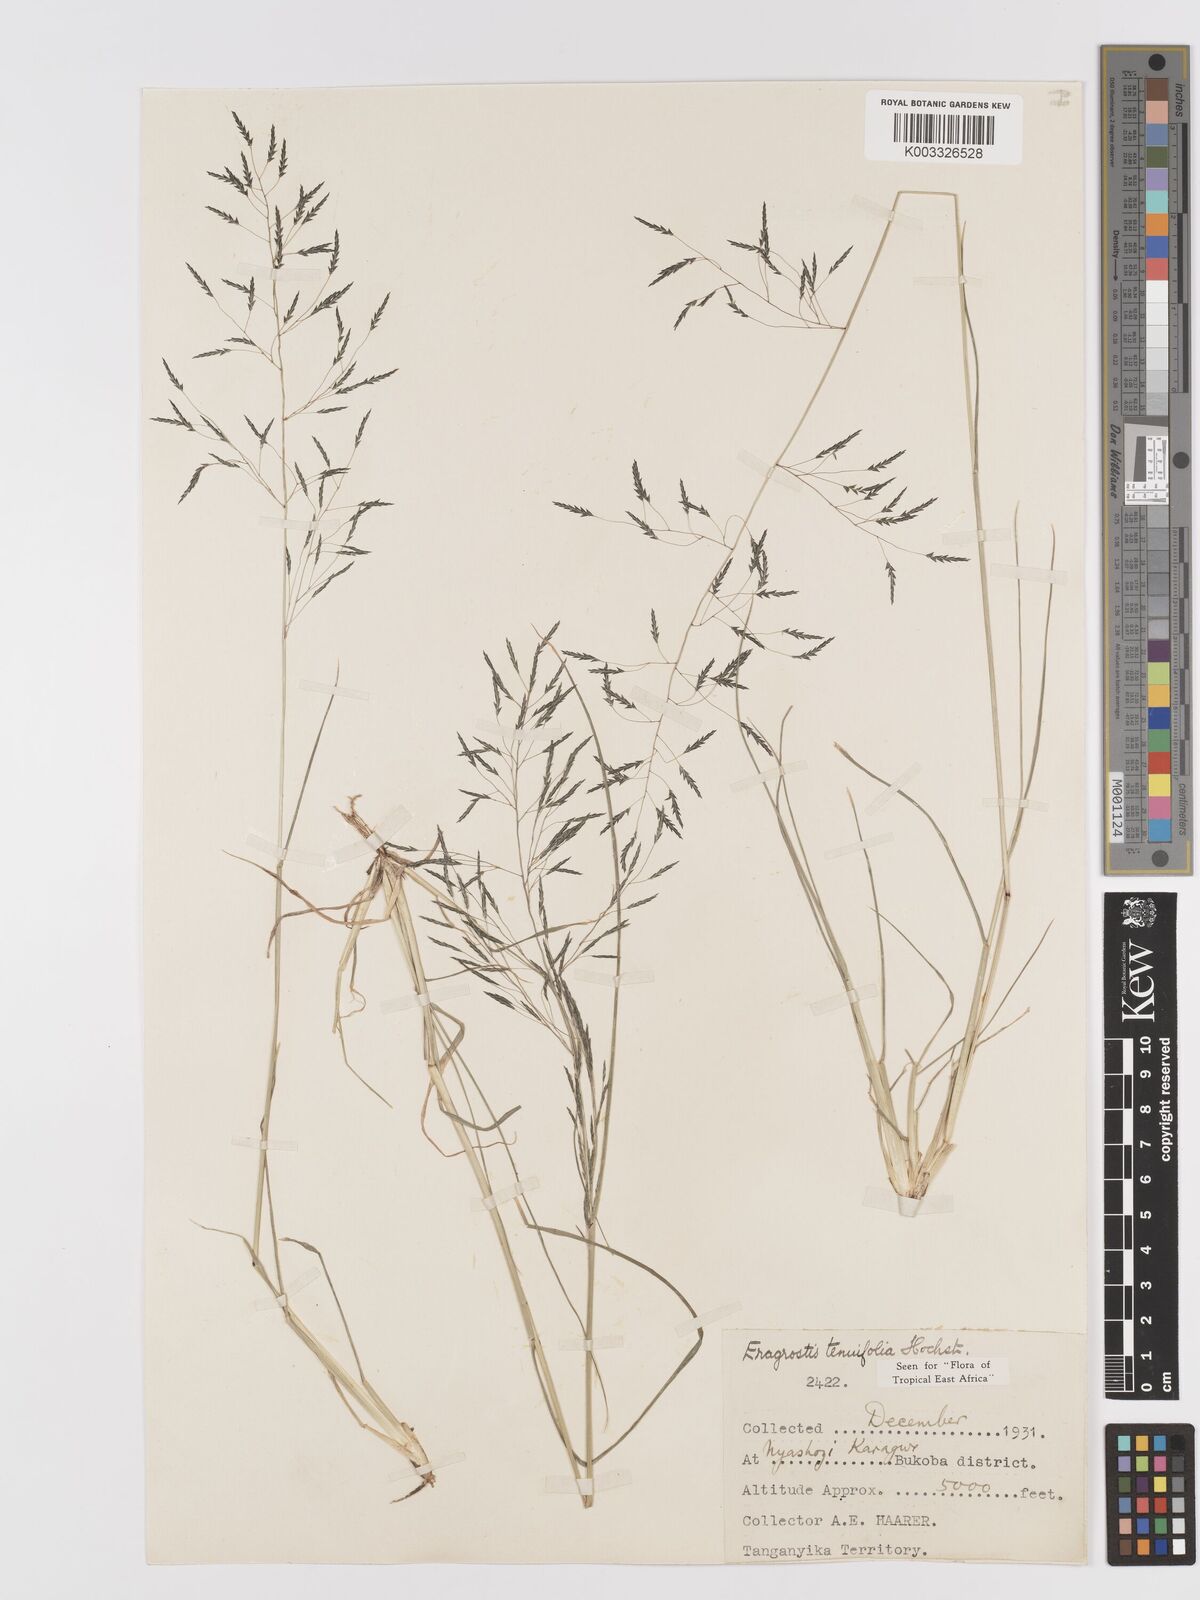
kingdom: Plantae
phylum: Tracheophyta
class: Liliopsida
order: Poales
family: Poaceae
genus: Eragrostis
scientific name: Eragrostis tenuifolia
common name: Elastic grass
